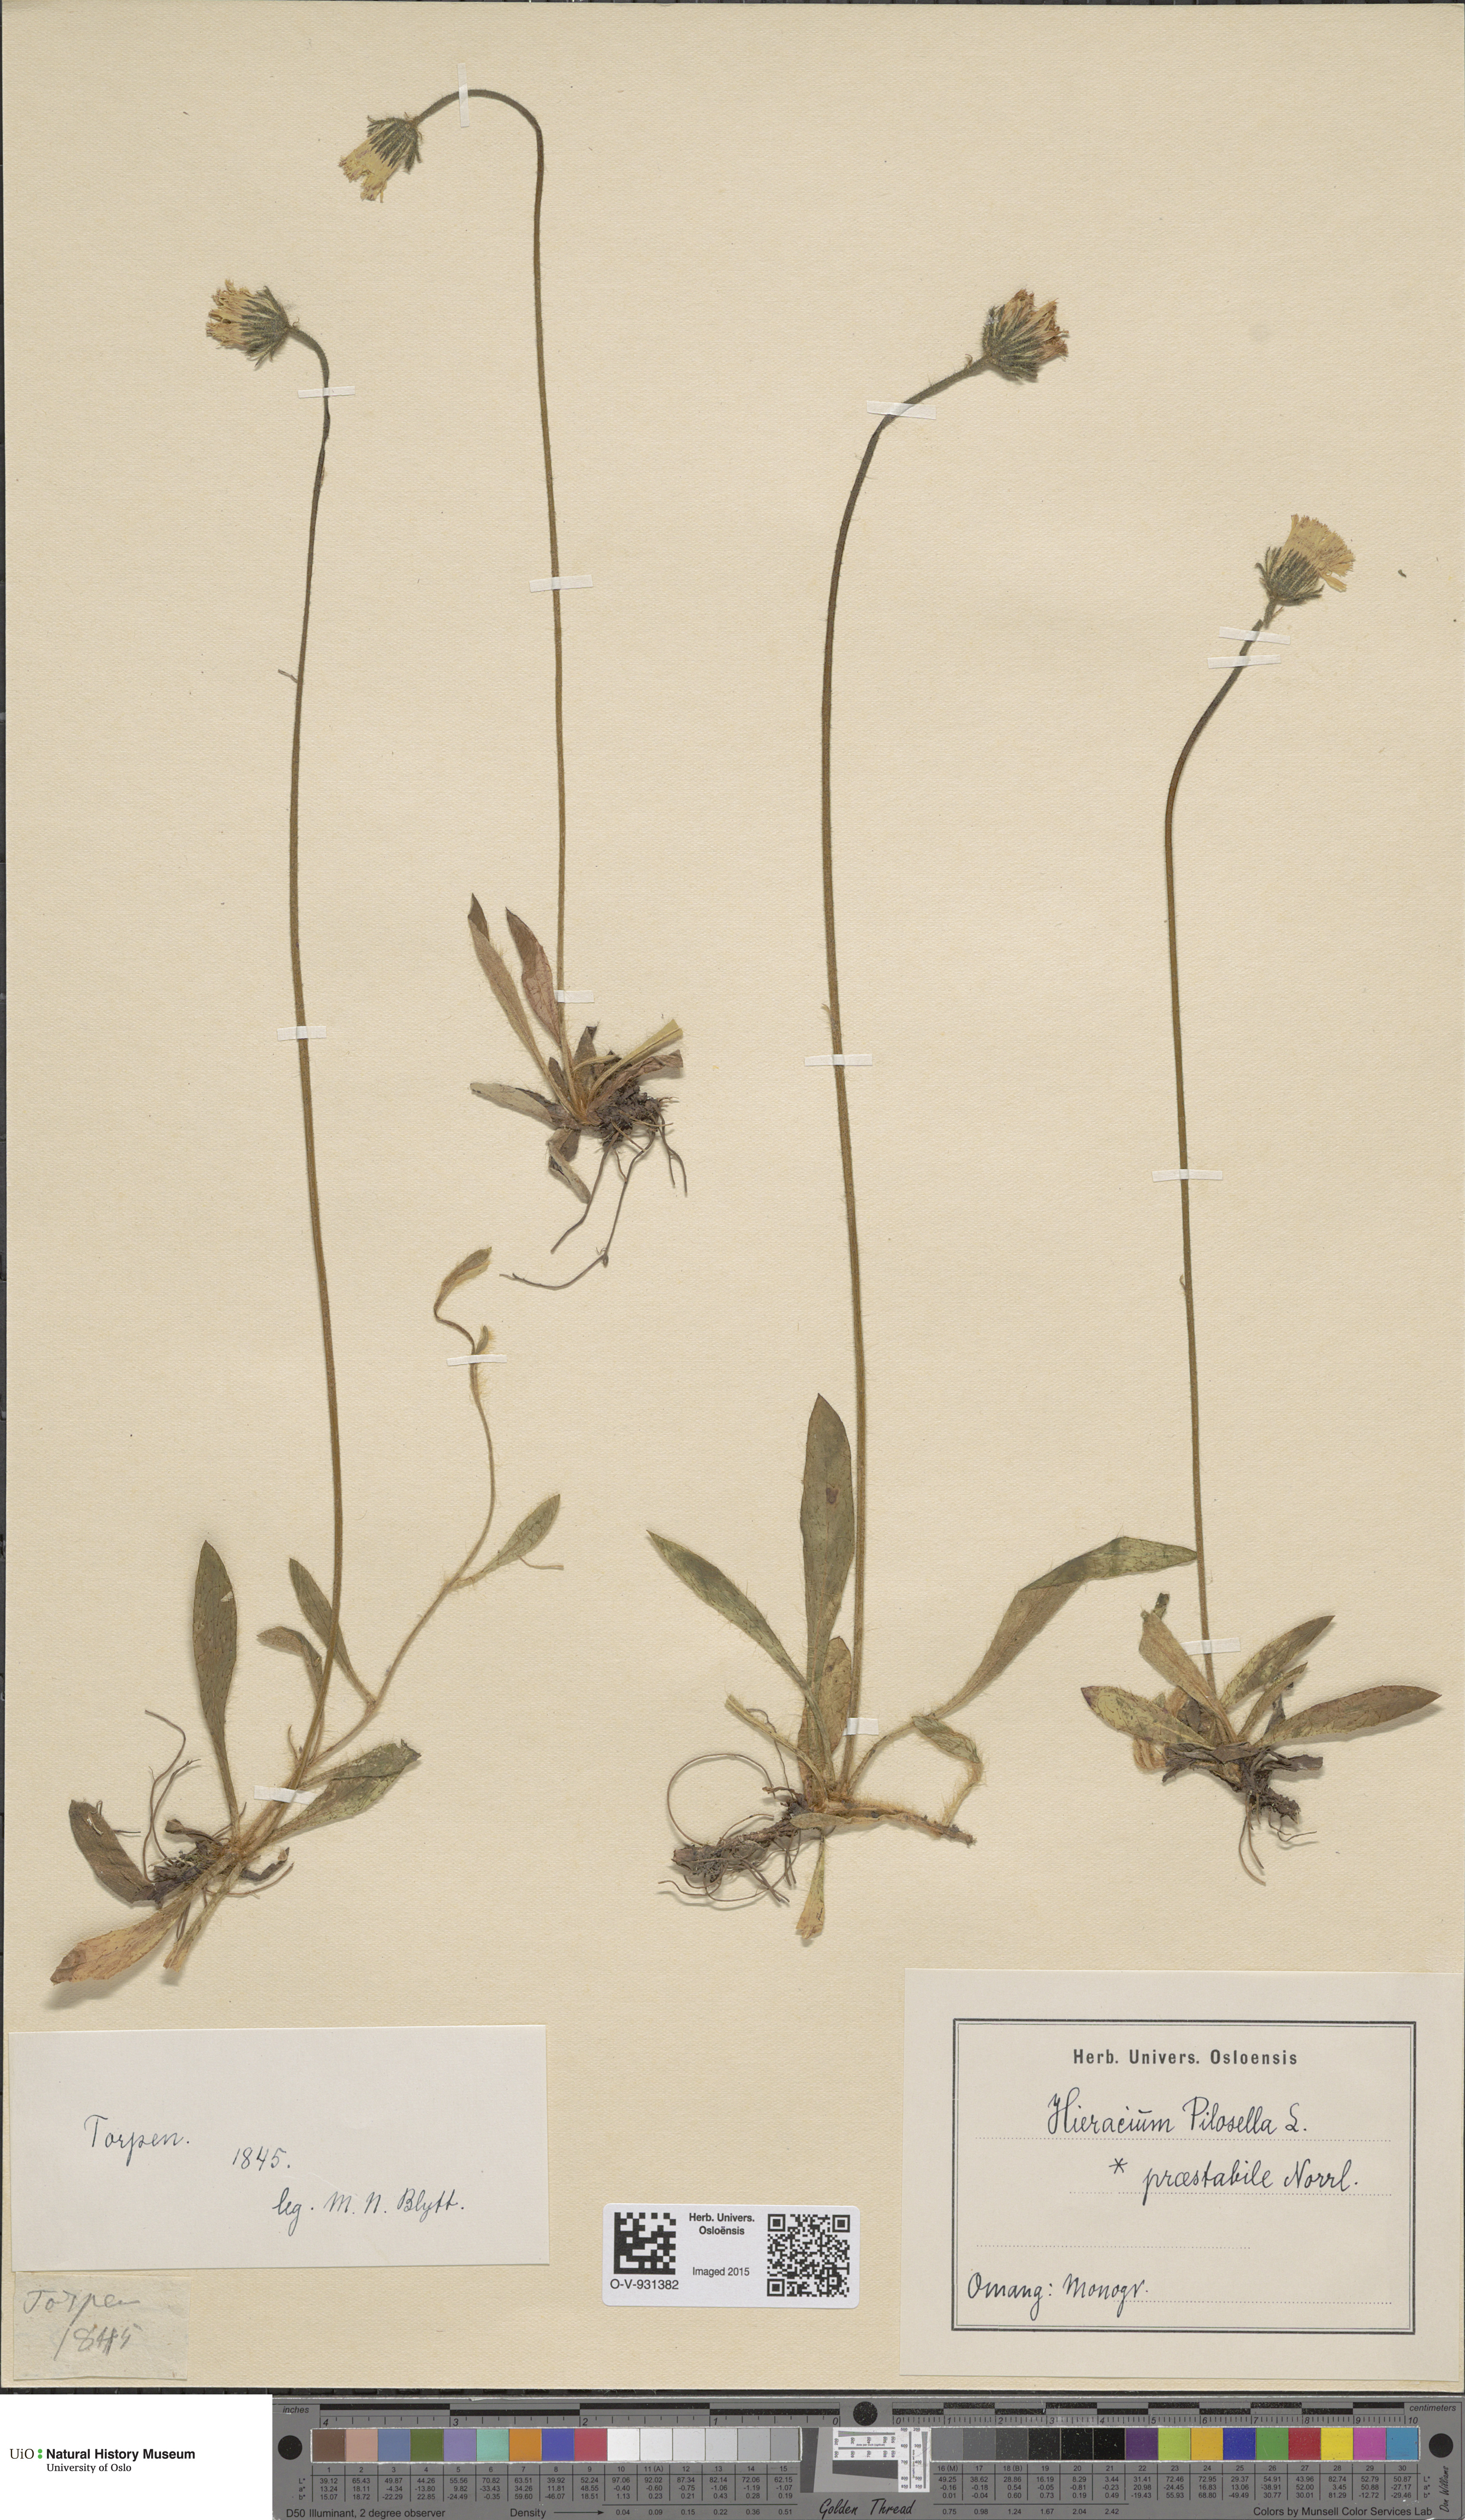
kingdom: Plantae
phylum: Tracheophyta
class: Magnoliopsida
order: Asterales
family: Asteraceae
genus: Pilosella
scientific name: Pilosella officinarum
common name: Mouse-ear hawkweed
